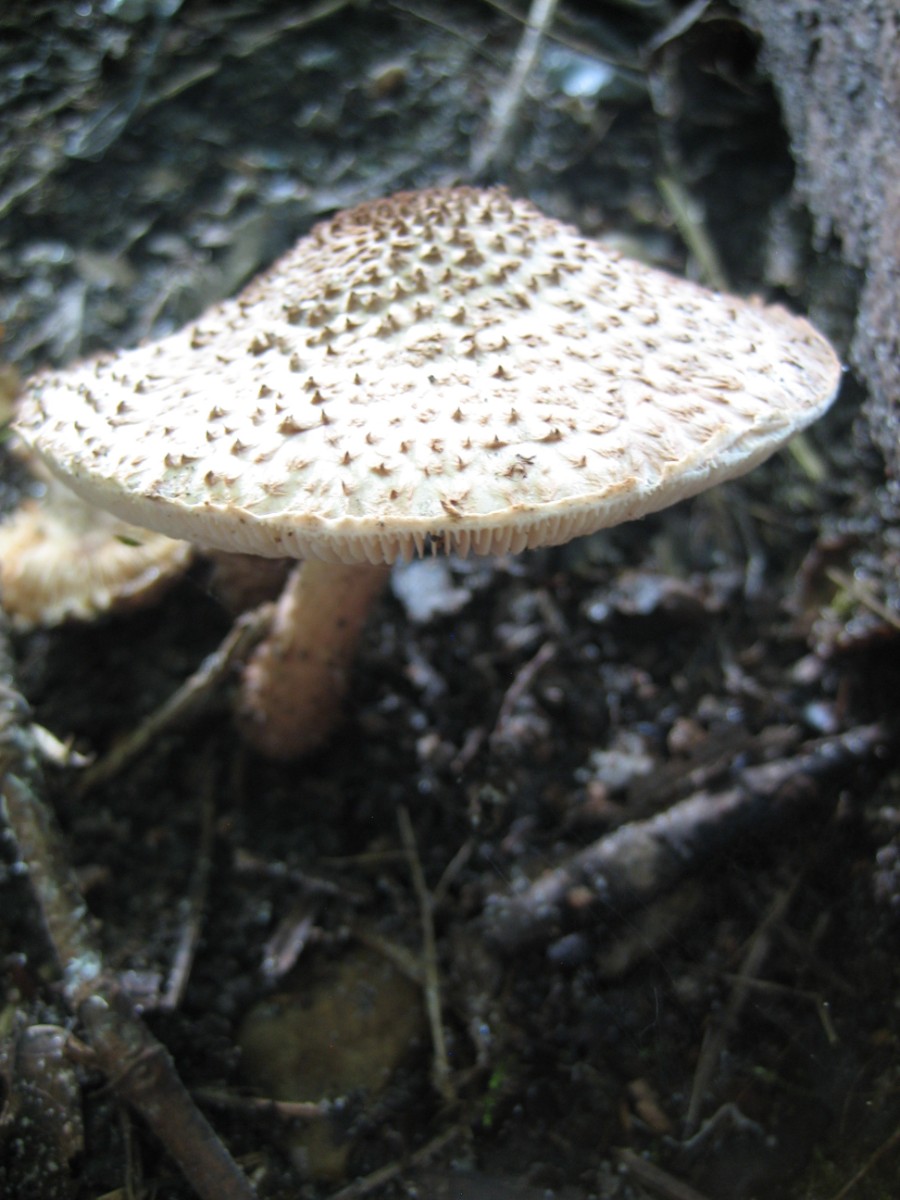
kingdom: Fungi
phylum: Basidiomycota
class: Agaricomycetes
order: Agaricales
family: Agaricaceae
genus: Echinoderma
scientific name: Echinoderma
